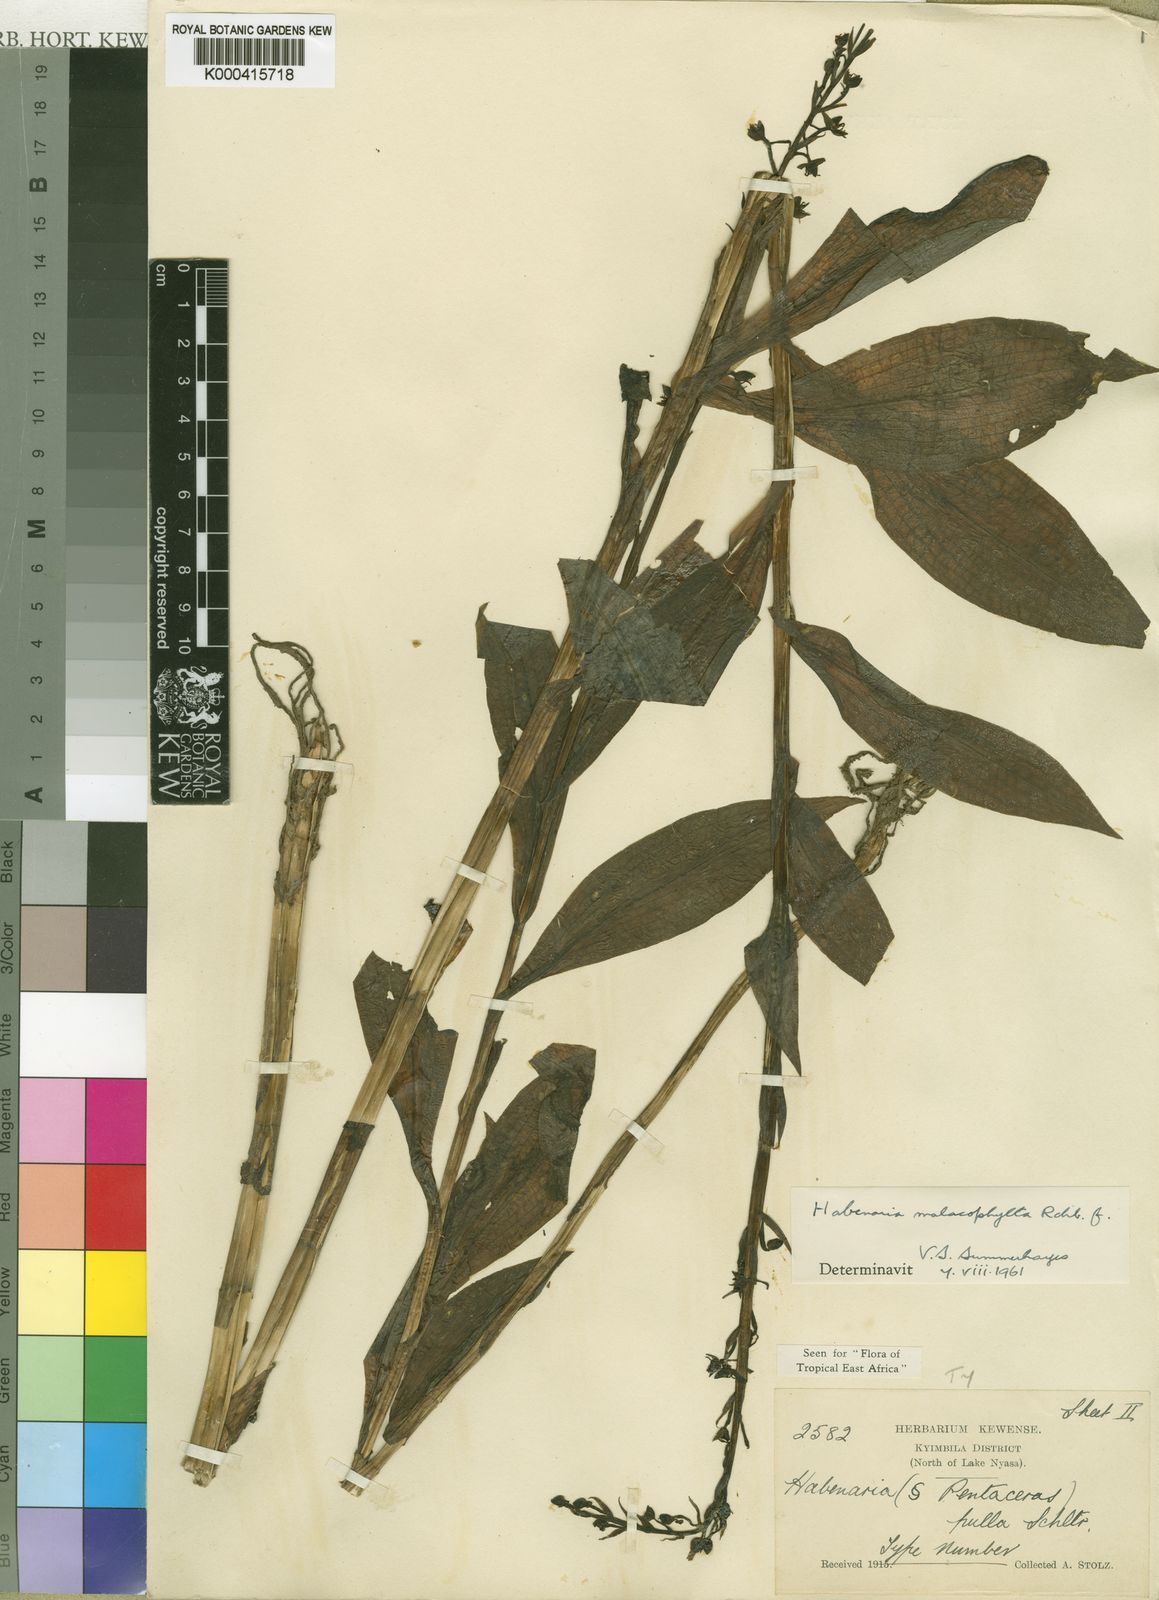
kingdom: Plantae
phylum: Tracheophyta
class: Liliopsida
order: Asparagales
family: Orchidaceae
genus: Habenaria
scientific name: Habenaria malacophylla
